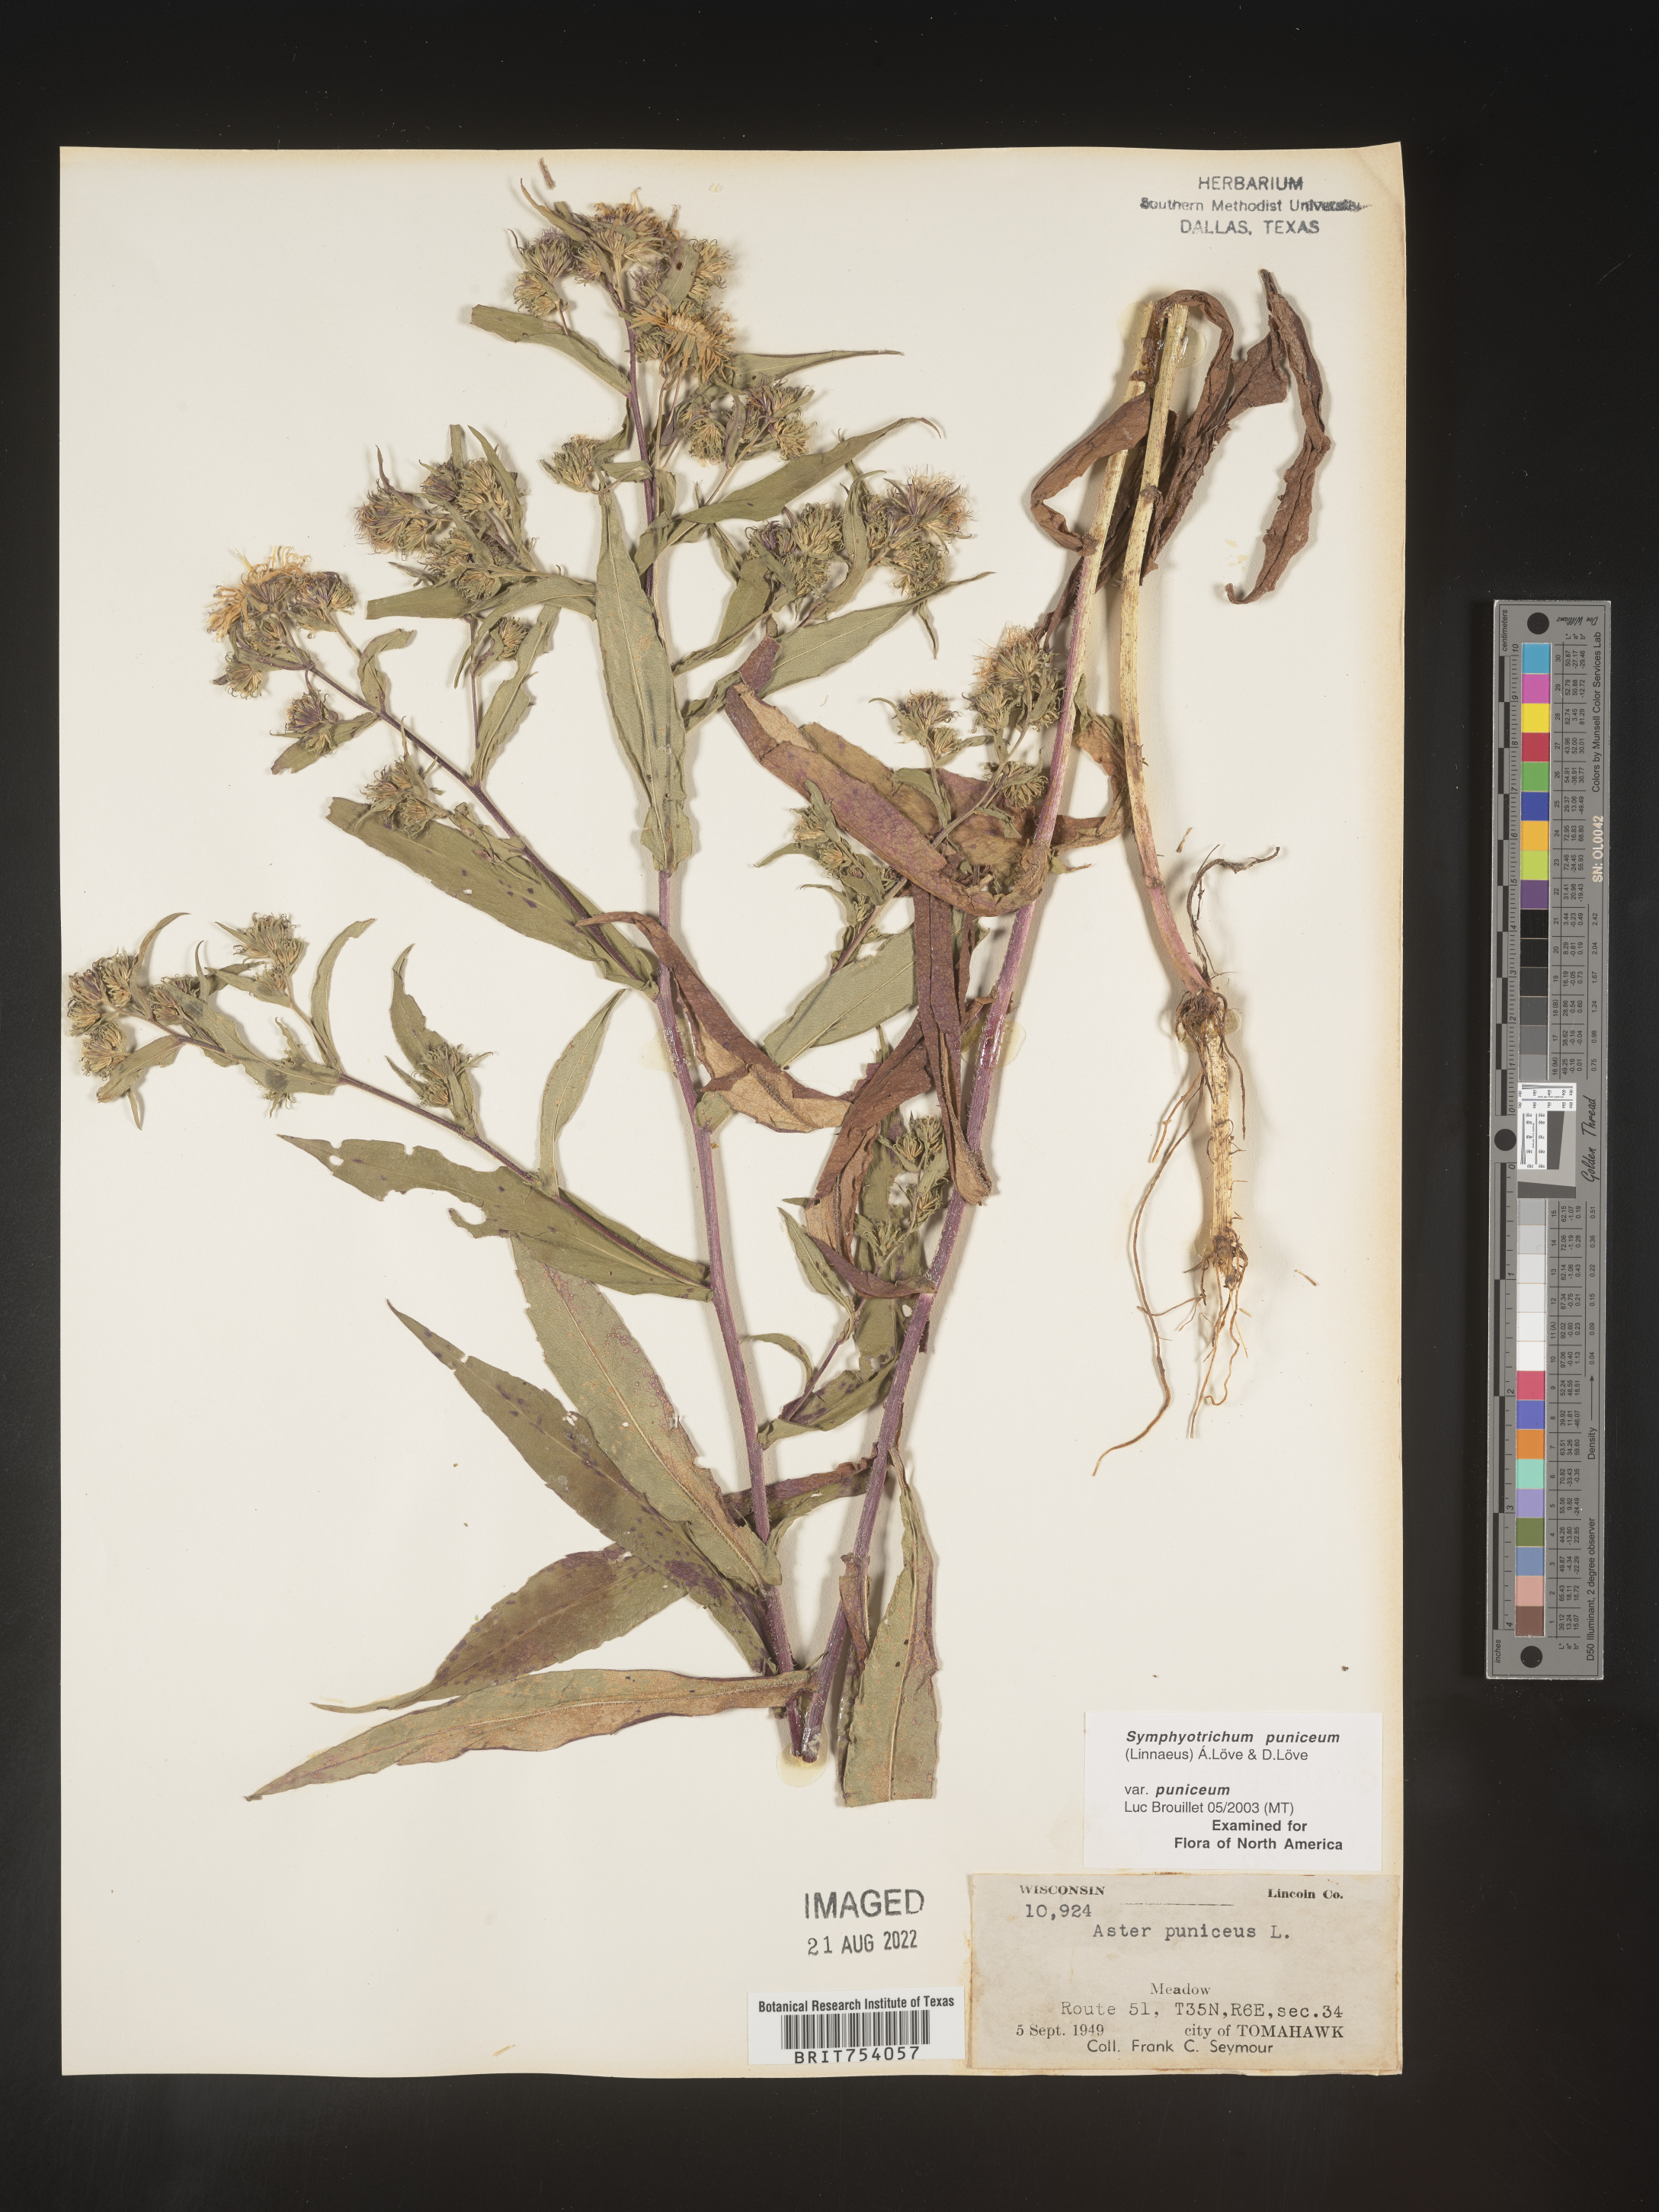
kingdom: Plantae
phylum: Tracheophyta
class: Magnoliopsida
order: Asterales
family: Asteraceae
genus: Symphyotrichum
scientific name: Symphyotrichum puniceum
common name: Bog aster
